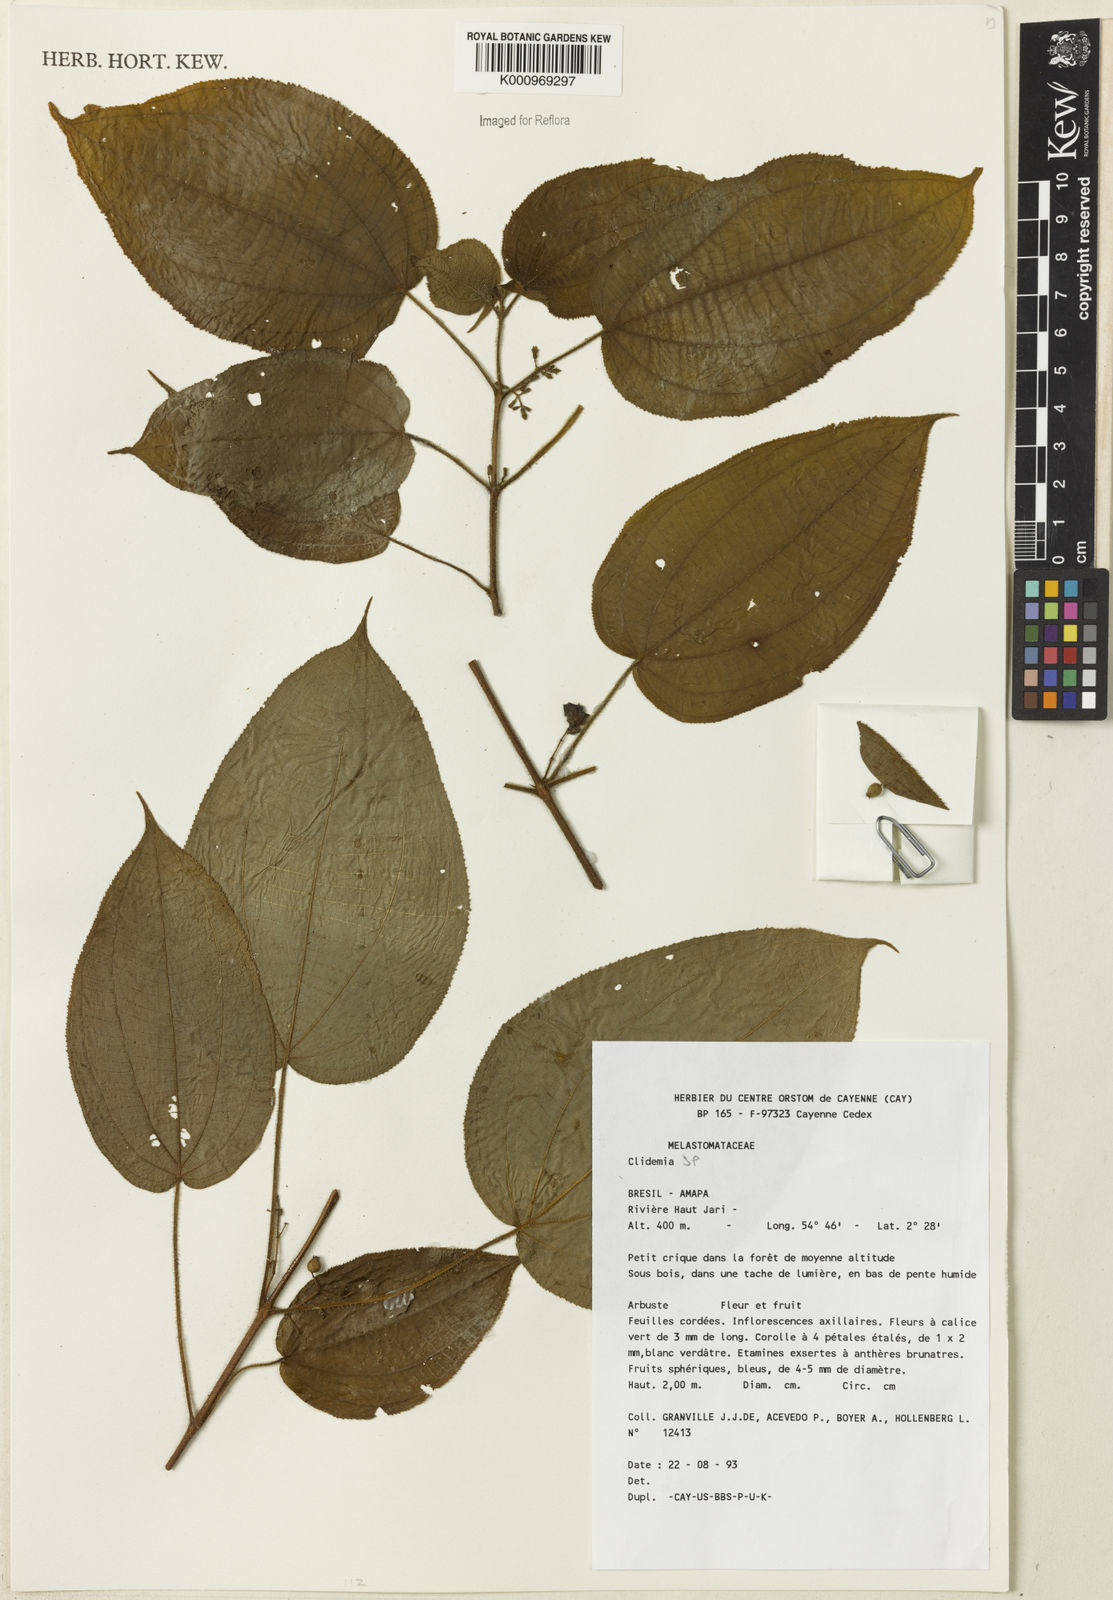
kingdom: Plantae
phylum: Tracheophyta
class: Magnoliopsida
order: Myrtales
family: Melastomataceae
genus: Miconia
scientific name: Miconia
